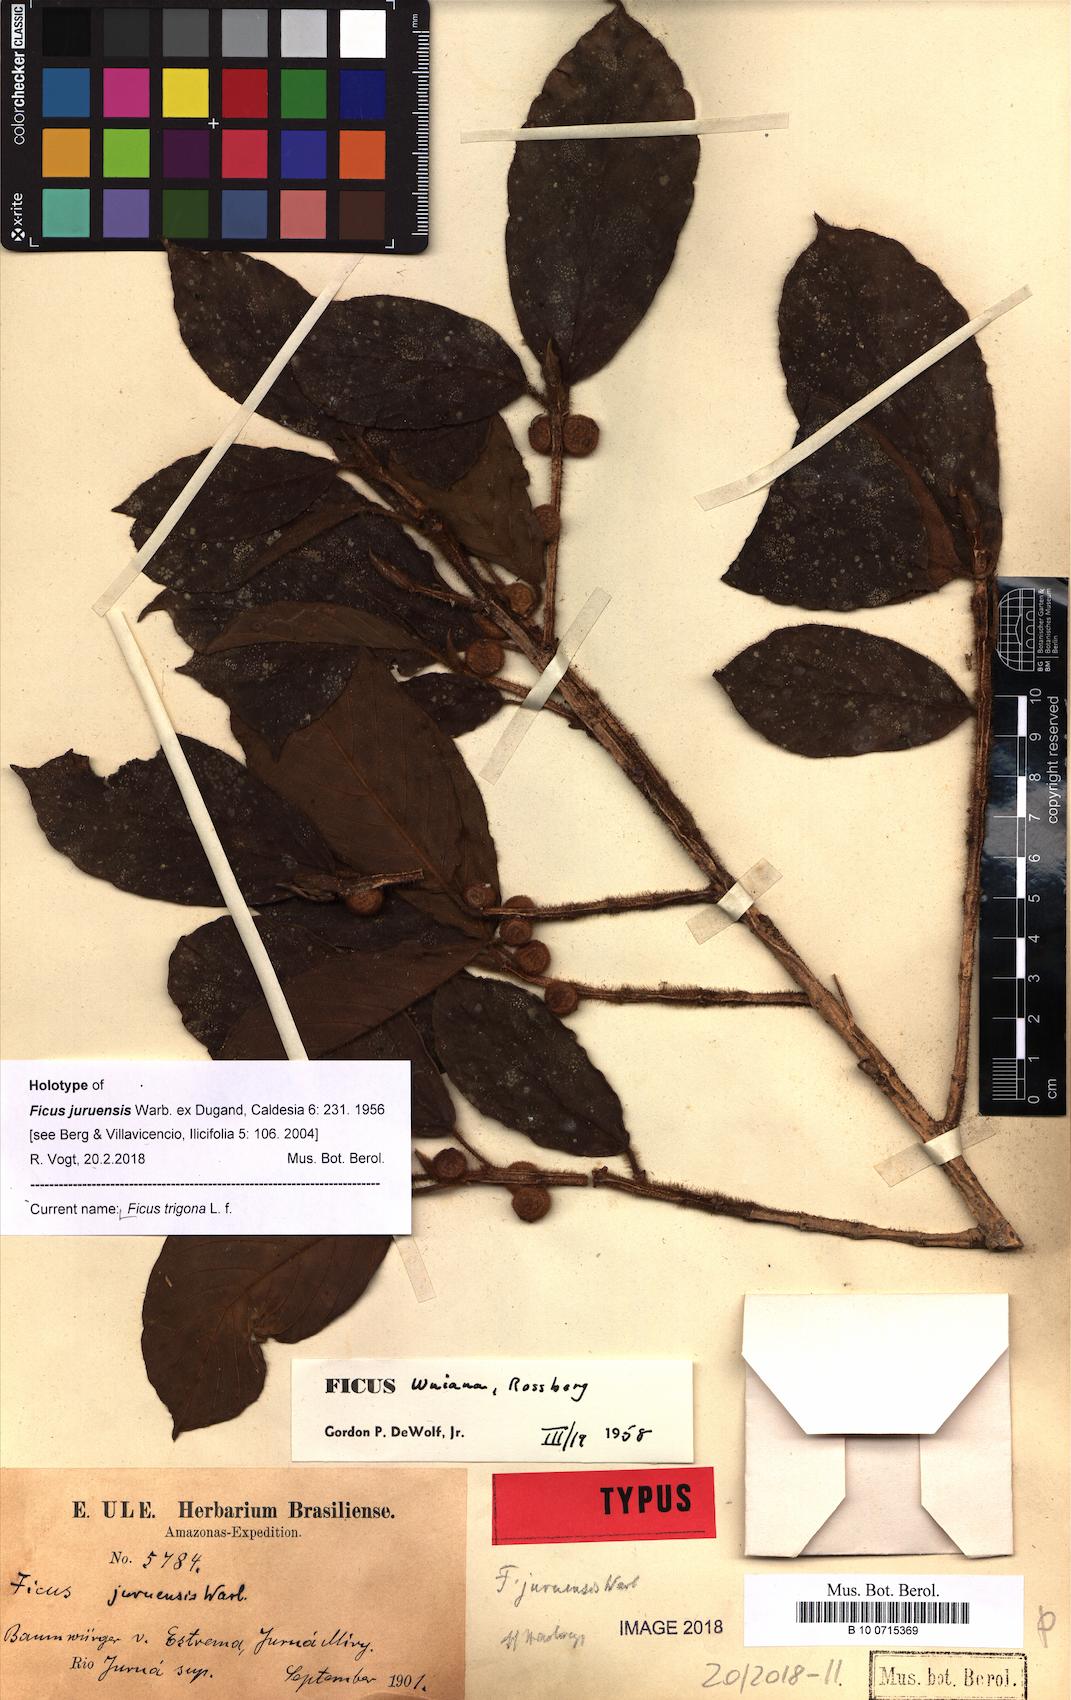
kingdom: Plantae
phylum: Tracheophyta
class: Magnoliopsida
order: Rosales
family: Moraceae
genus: Ficus
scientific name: Ficus trigona
